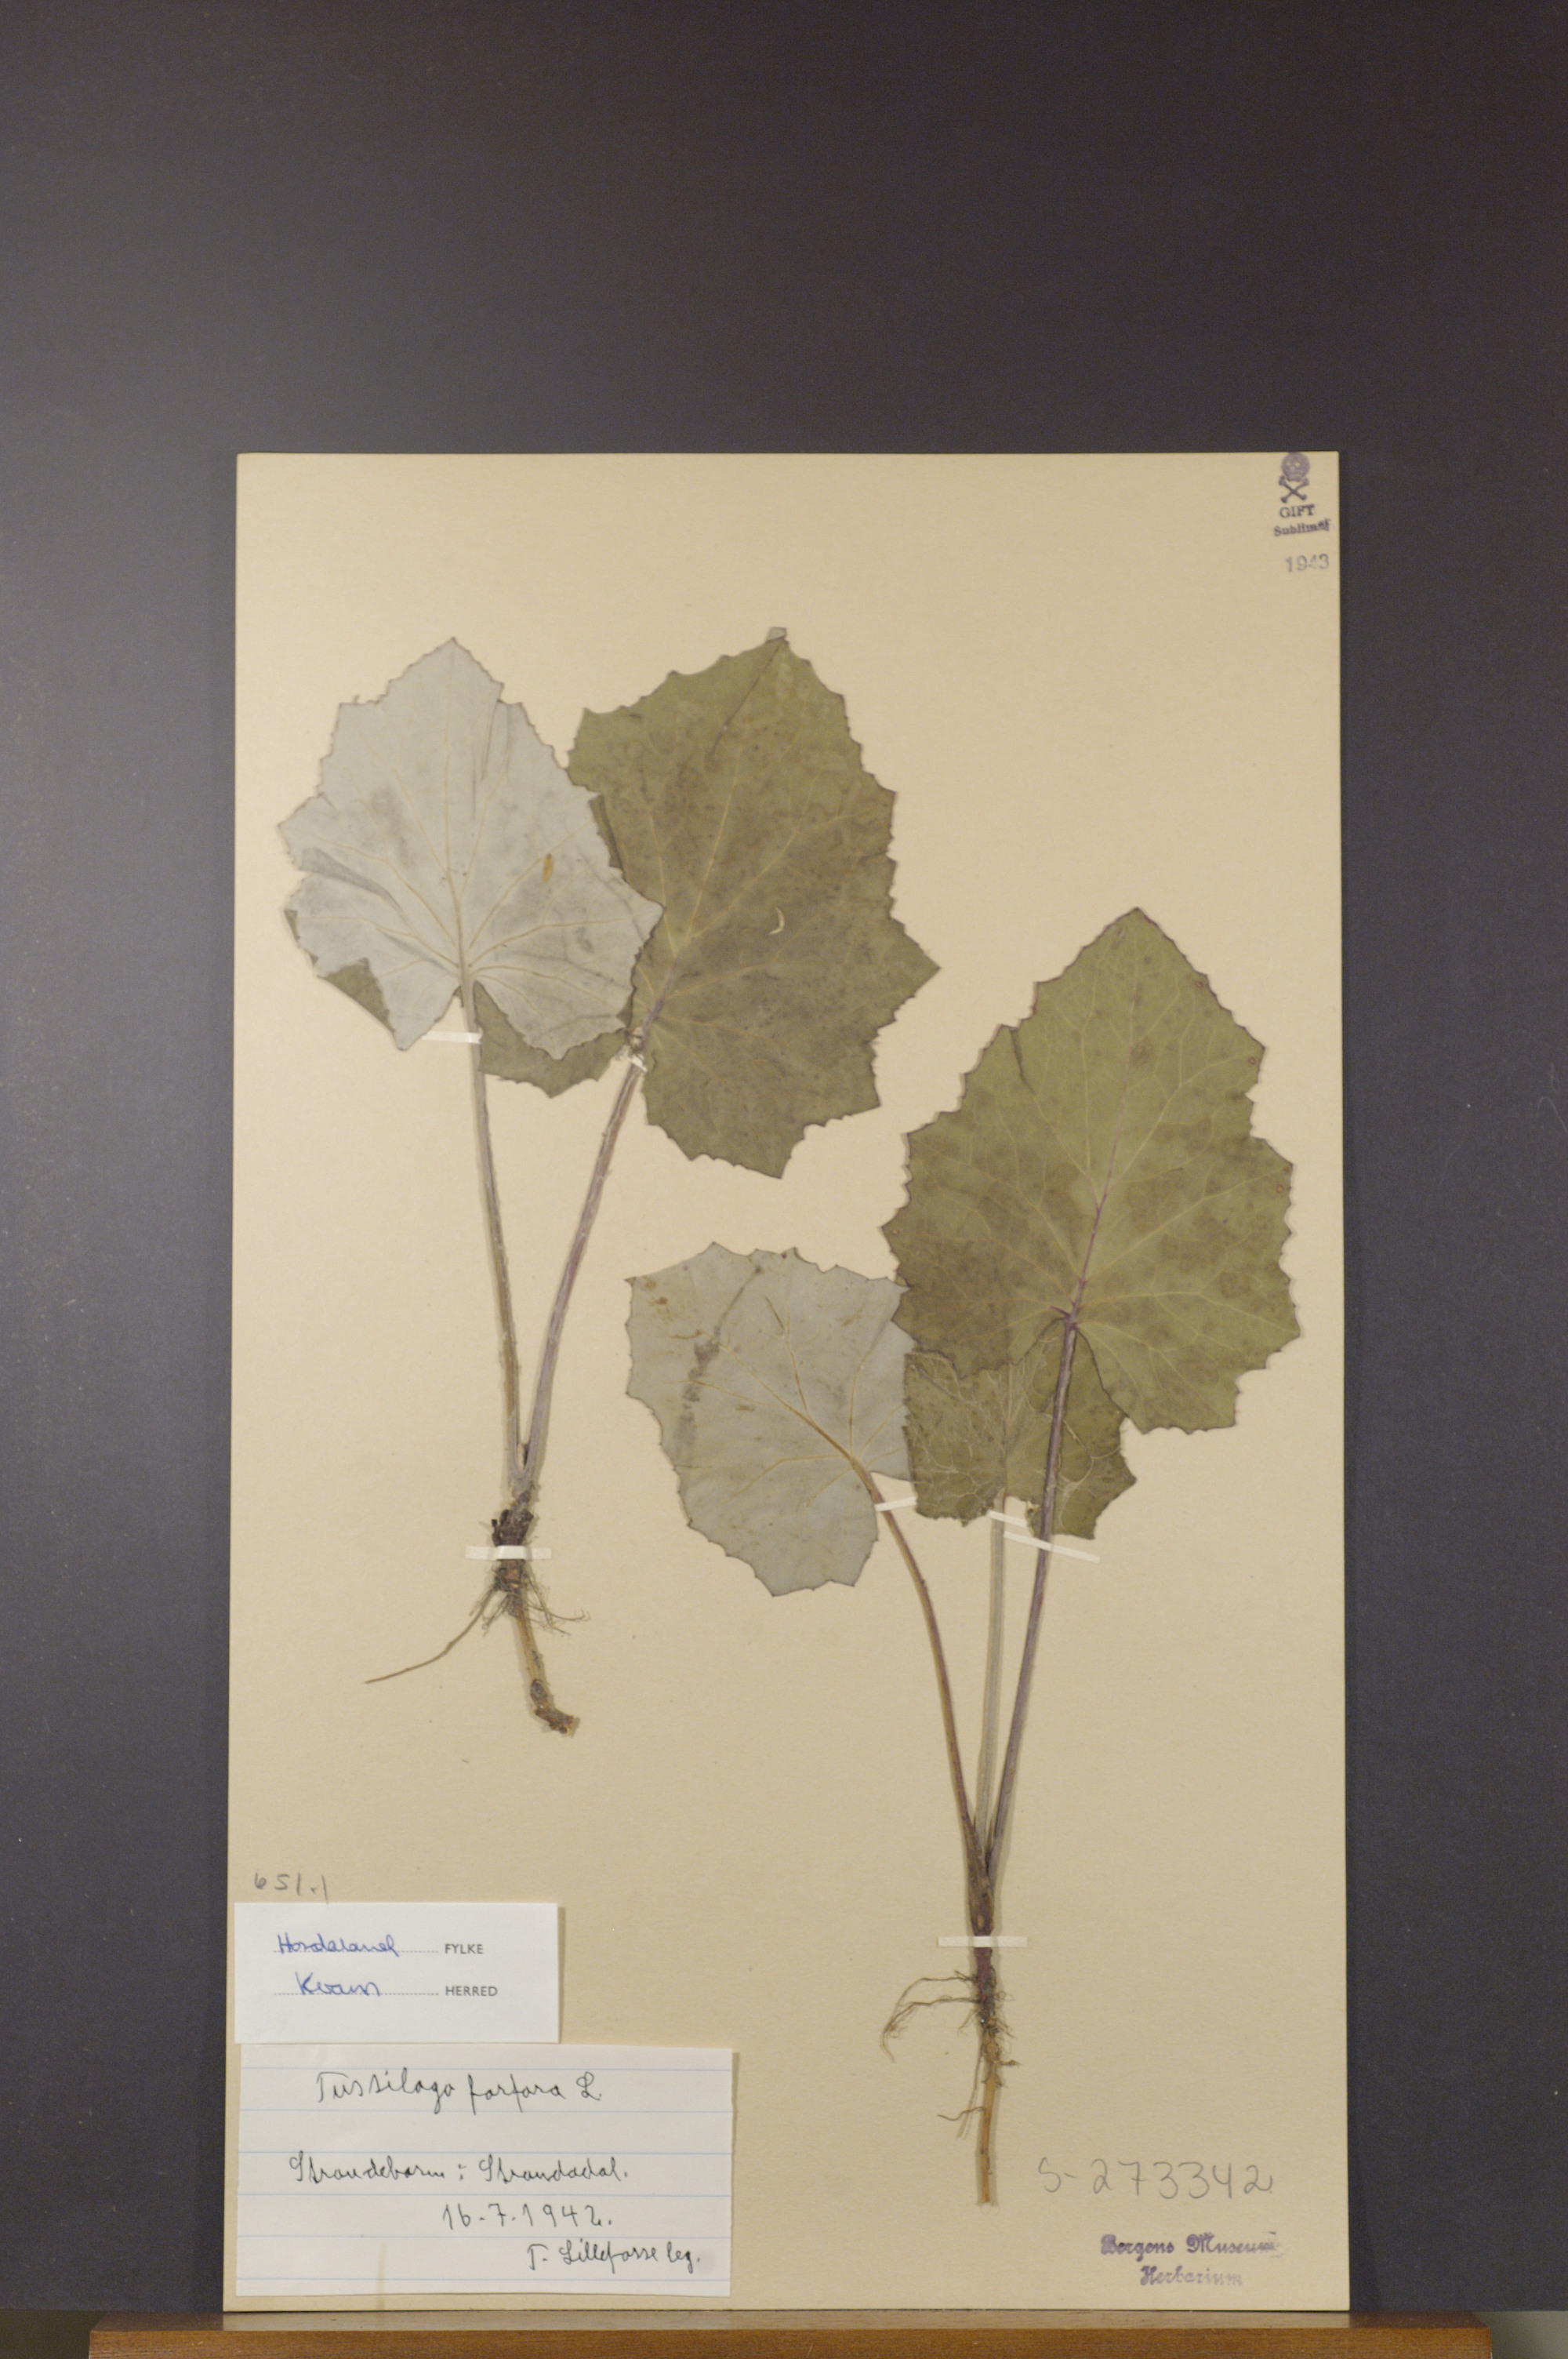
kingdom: Plantae
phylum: Tracheophyta
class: Magnoliopsida
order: Asterales
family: Asteraceae
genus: Tussilago
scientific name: Tussilago farfara
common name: Coltsfoot
